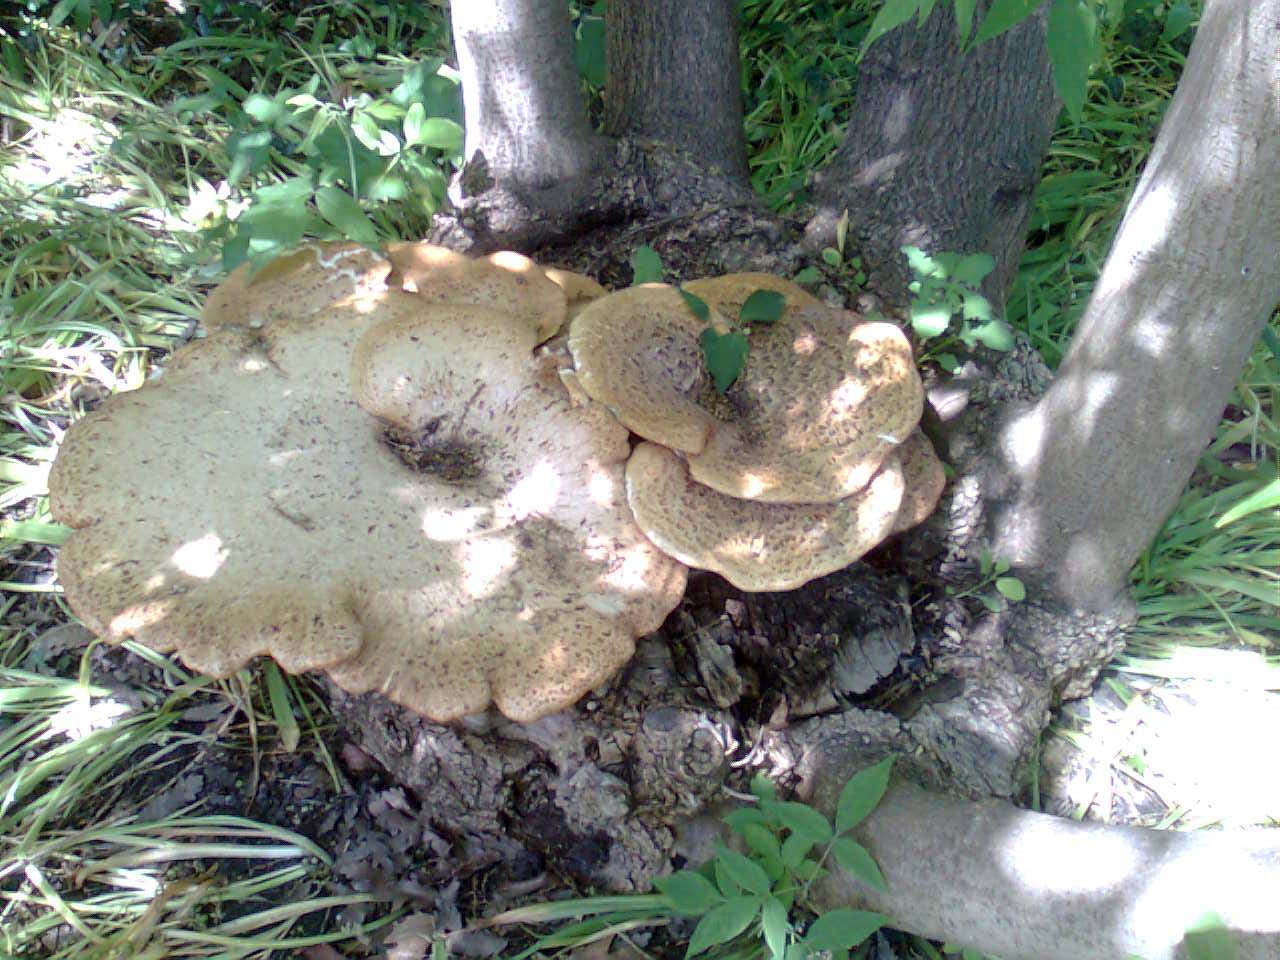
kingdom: Fungi
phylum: Basidiomycota
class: Agaricomycetes
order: Polyporales
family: Polyporaceae
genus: Cerioporus
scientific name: Cerioporus squamosus
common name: skællet stilkporesvamp
